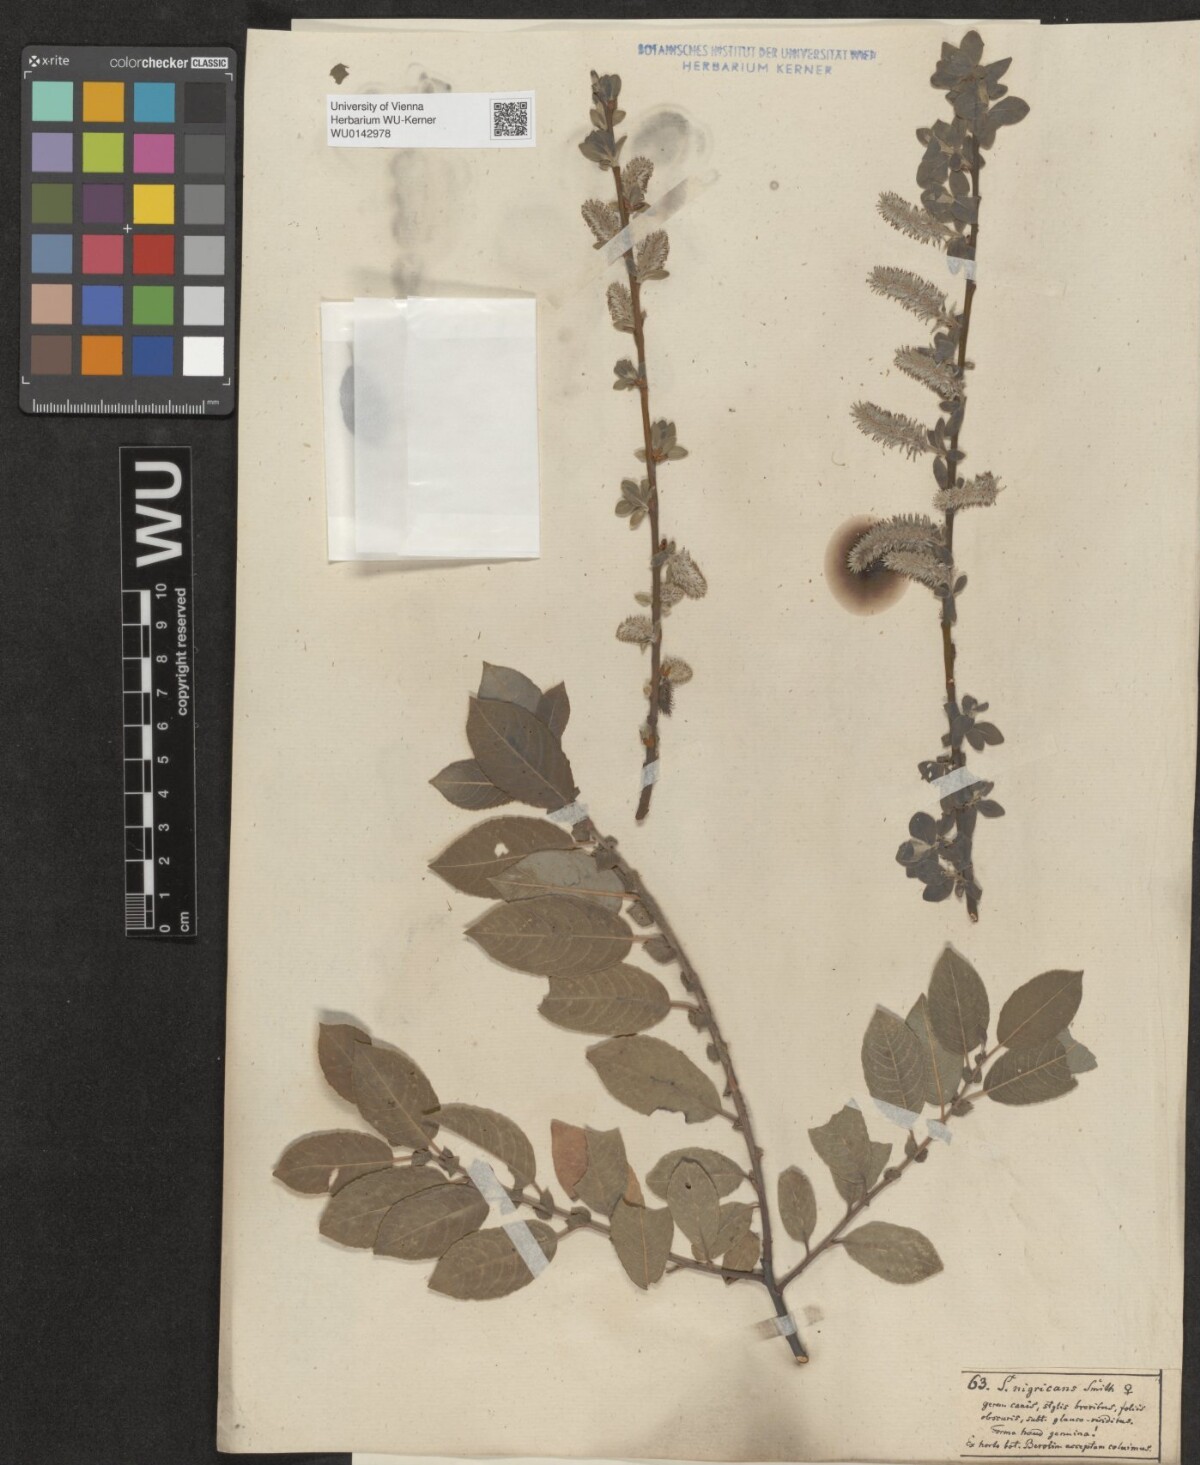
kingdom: Plantae
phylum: Tracheophyta
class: Magnoliopsida
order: Malpighiales
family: Salicaceae
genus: Salix
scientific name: Salix myrsinifolia
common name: Dark-leaved willow
